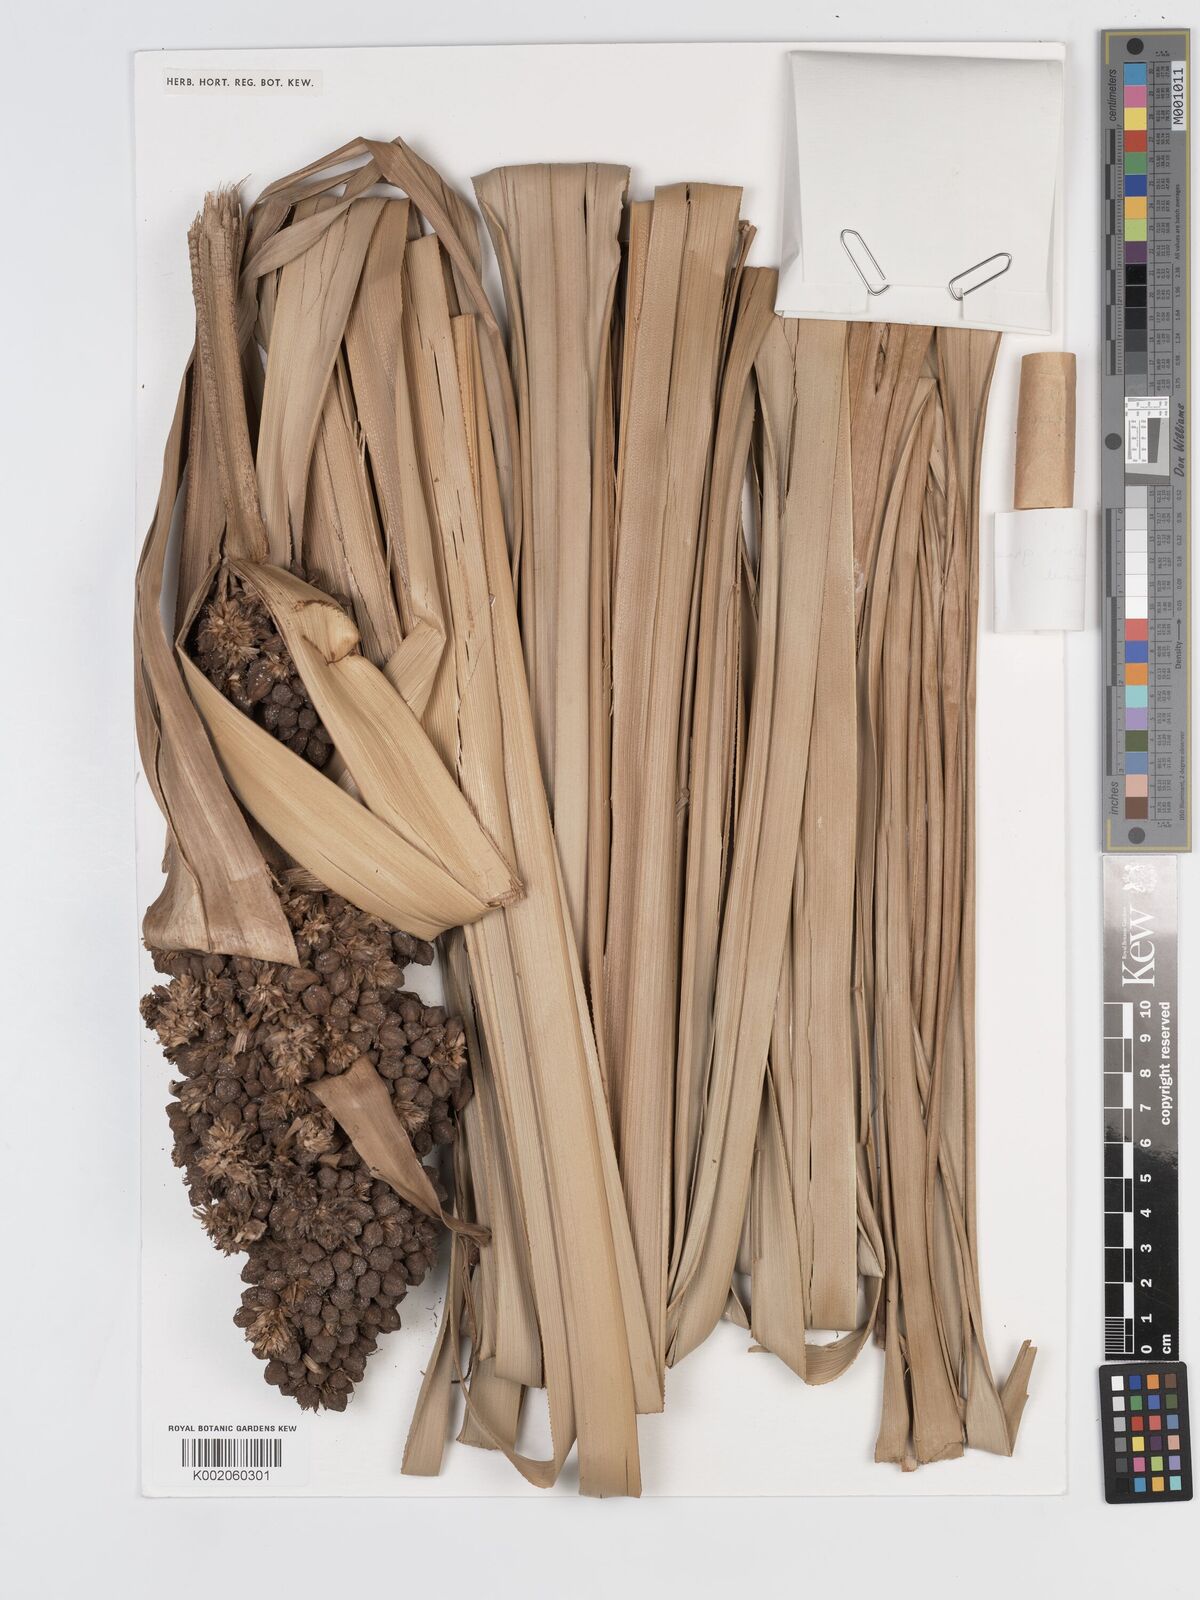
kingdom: Plantae
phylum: Tracheophyta
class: Liliopsida
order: Poales
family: Cyperaceae
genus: Scirpodendron
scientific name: Scirpodendron ghaeri
